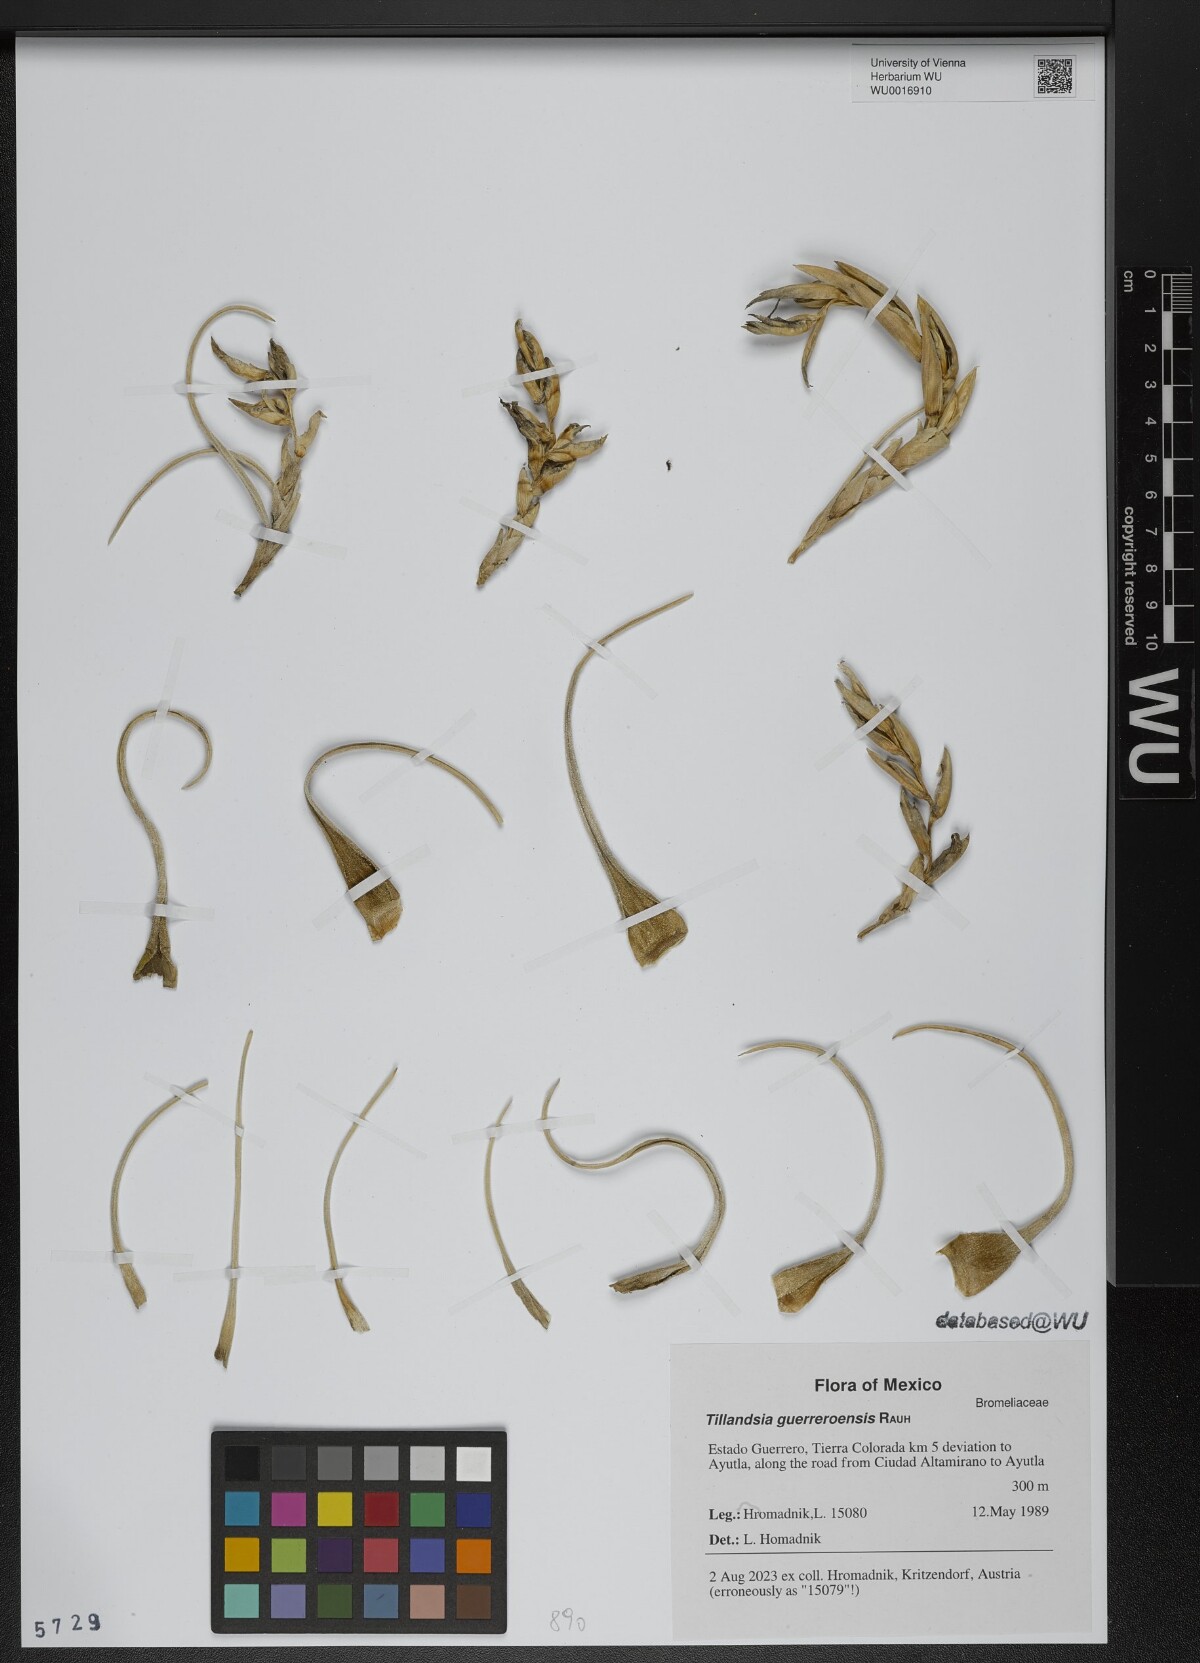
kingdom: Plantae
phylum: Tracheophyta
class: Liliopsida
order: Poales
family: Bromeliaceae
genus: Tillandsia
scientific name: Tillandsia guerreroensis
